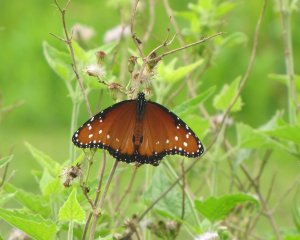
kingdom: Animalia
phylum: Arthropoda
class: Insecta
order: Lepidoptera
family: Nymphalidae
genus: Danaus
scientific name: Danaus gilippus
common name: Queen
